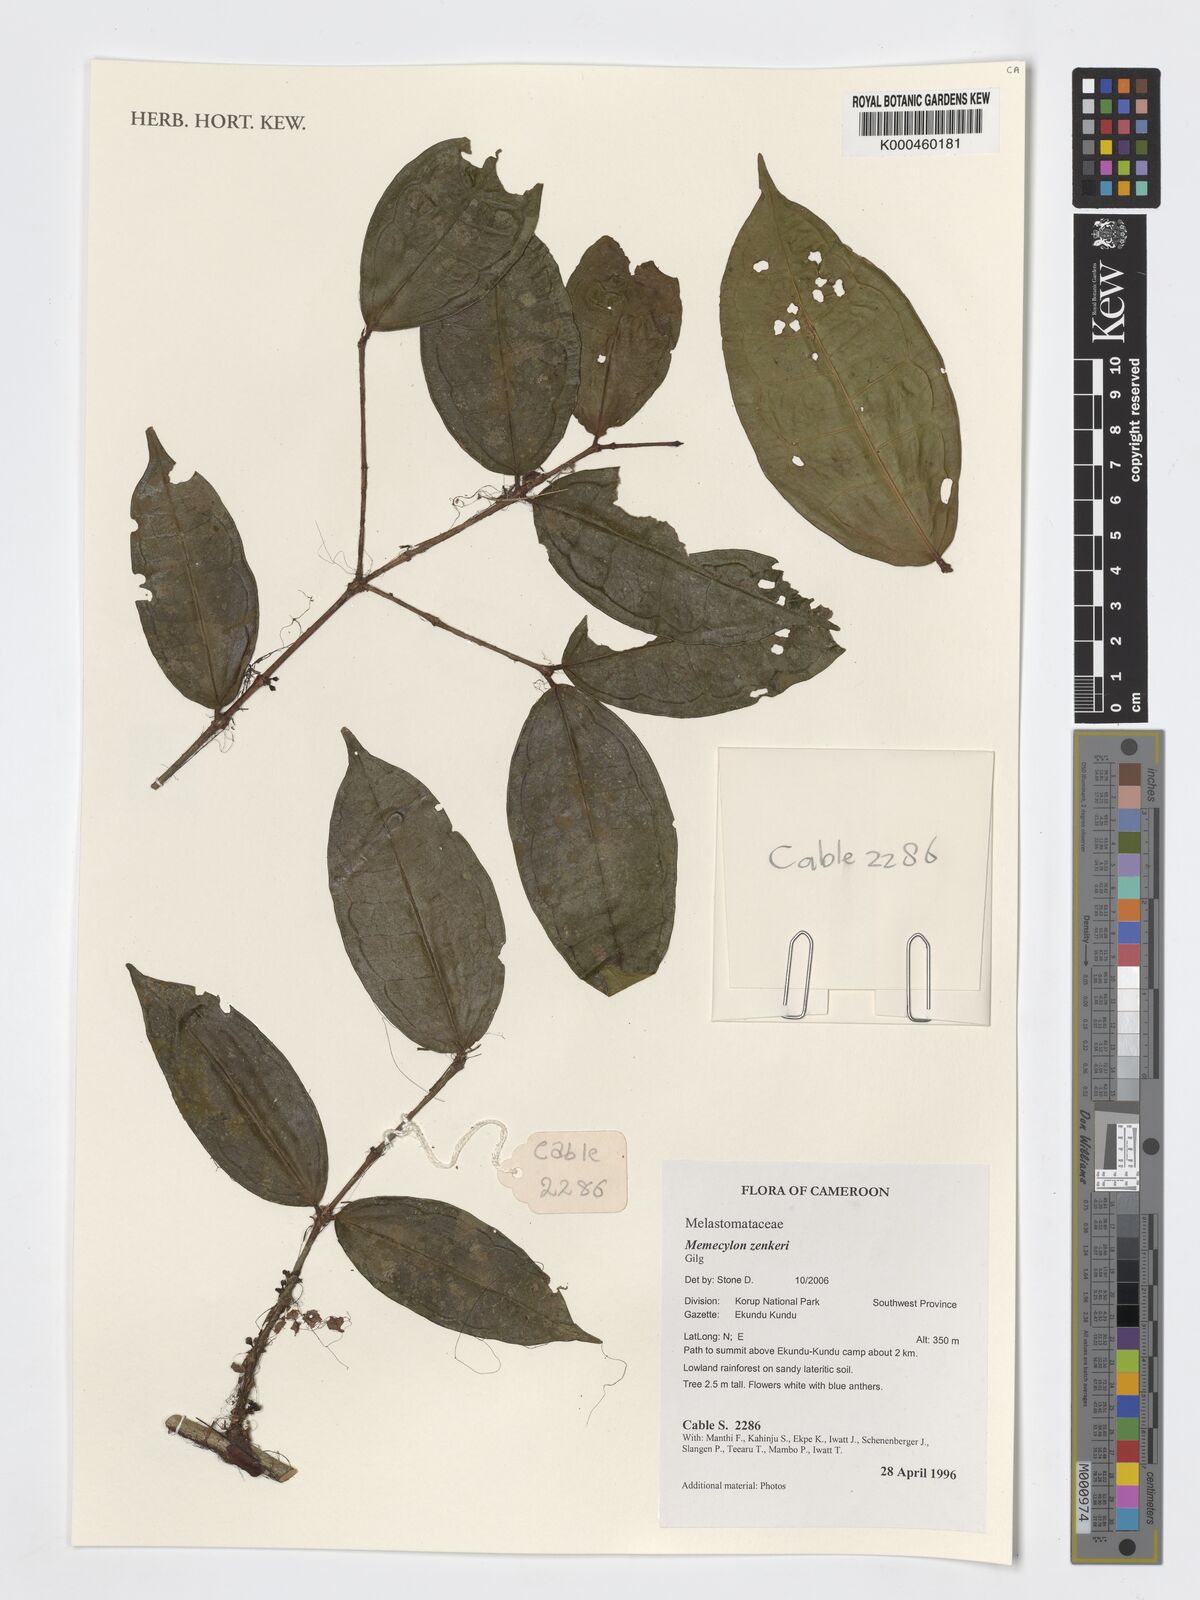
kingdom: Plantae
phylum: Tracheophyta
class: Magnoliopsida
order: Myrtales
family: Melastomataceae
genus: Memecylon
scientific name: Memecylon zenkeri
